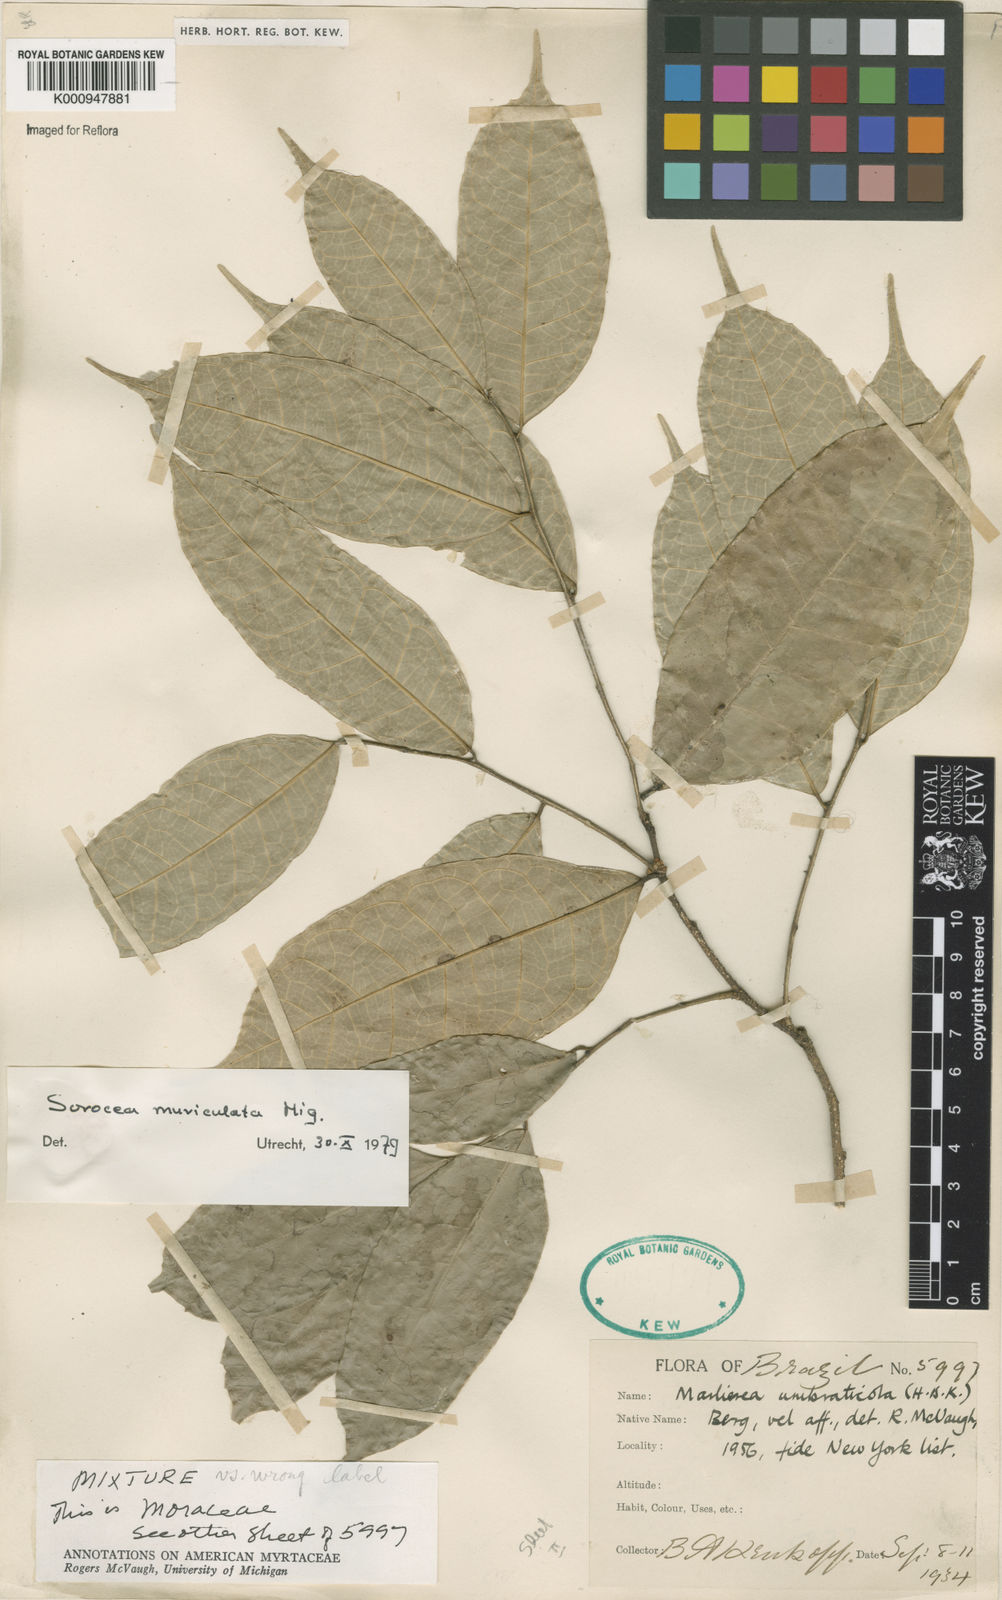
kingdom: Plantae
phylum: Tracheophyta
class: Magnoliopsida
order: Rosales
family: Moraceae
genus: Sorocea
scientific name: Sorocea muriculata
